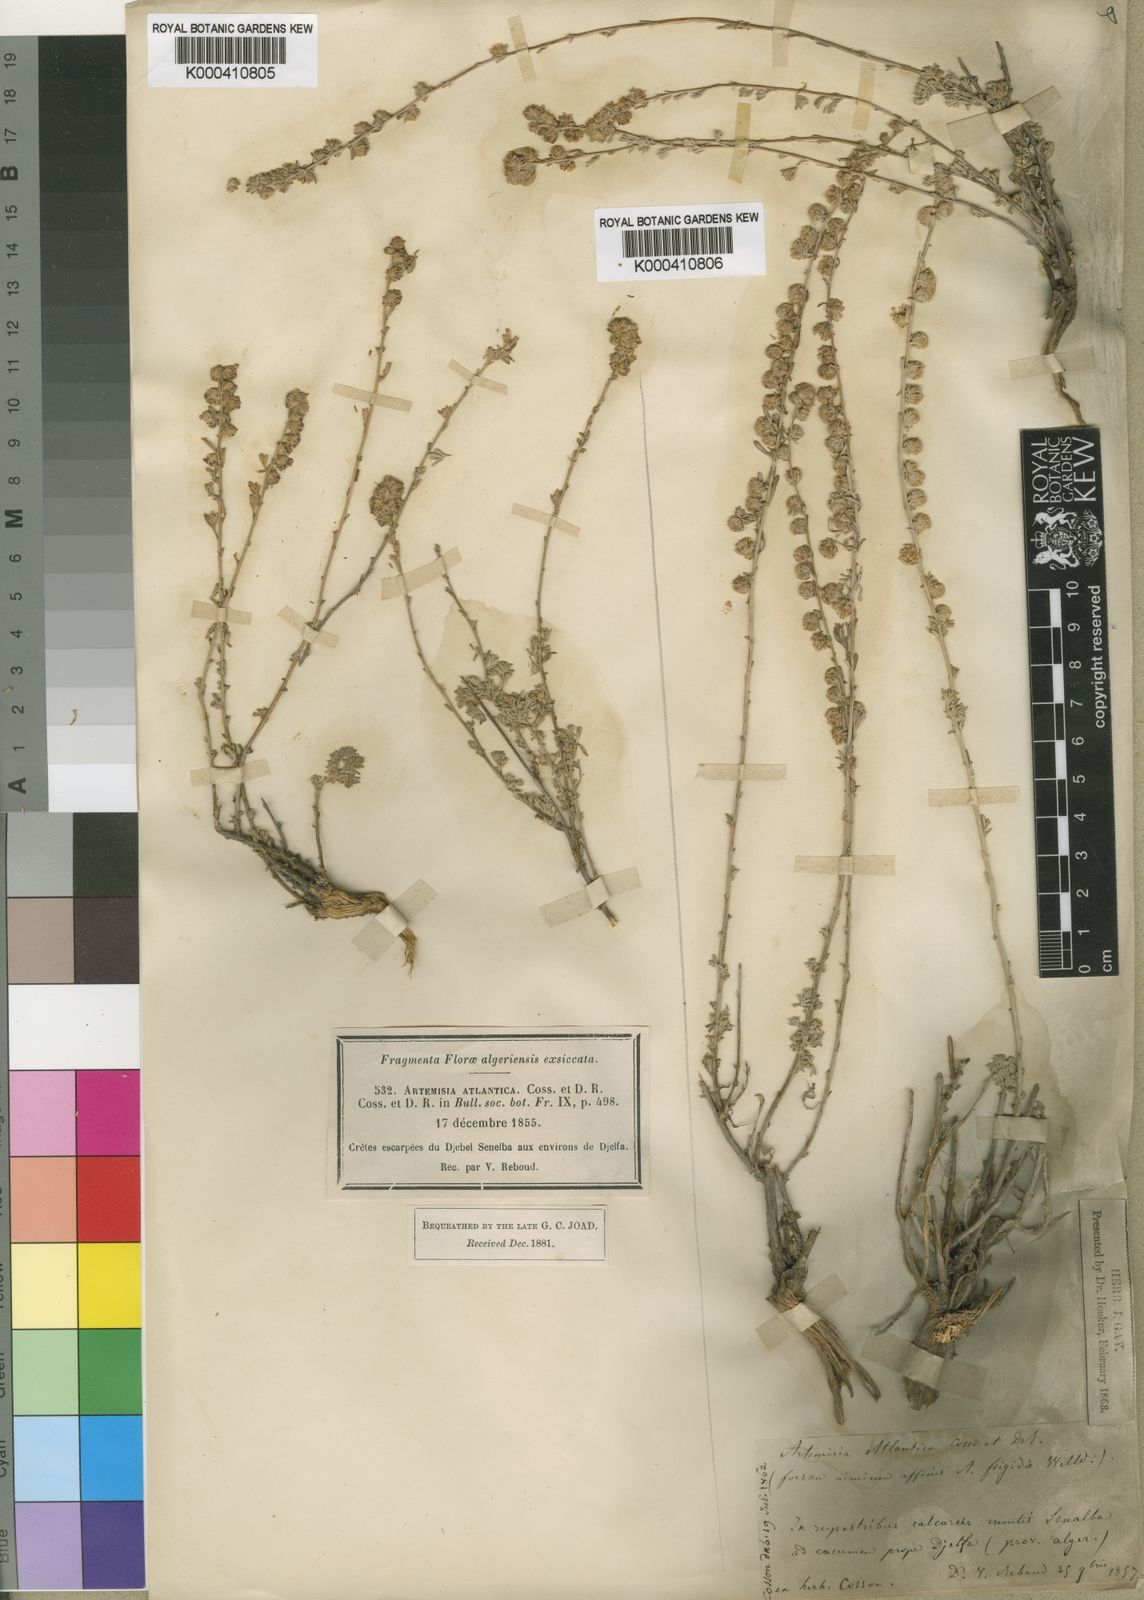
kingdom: Plantae
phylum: Tracheophyta
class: Magnoliopsida
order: Asterales
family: Asteraceae
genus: Artemisia
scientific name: Artemisia atlantica
